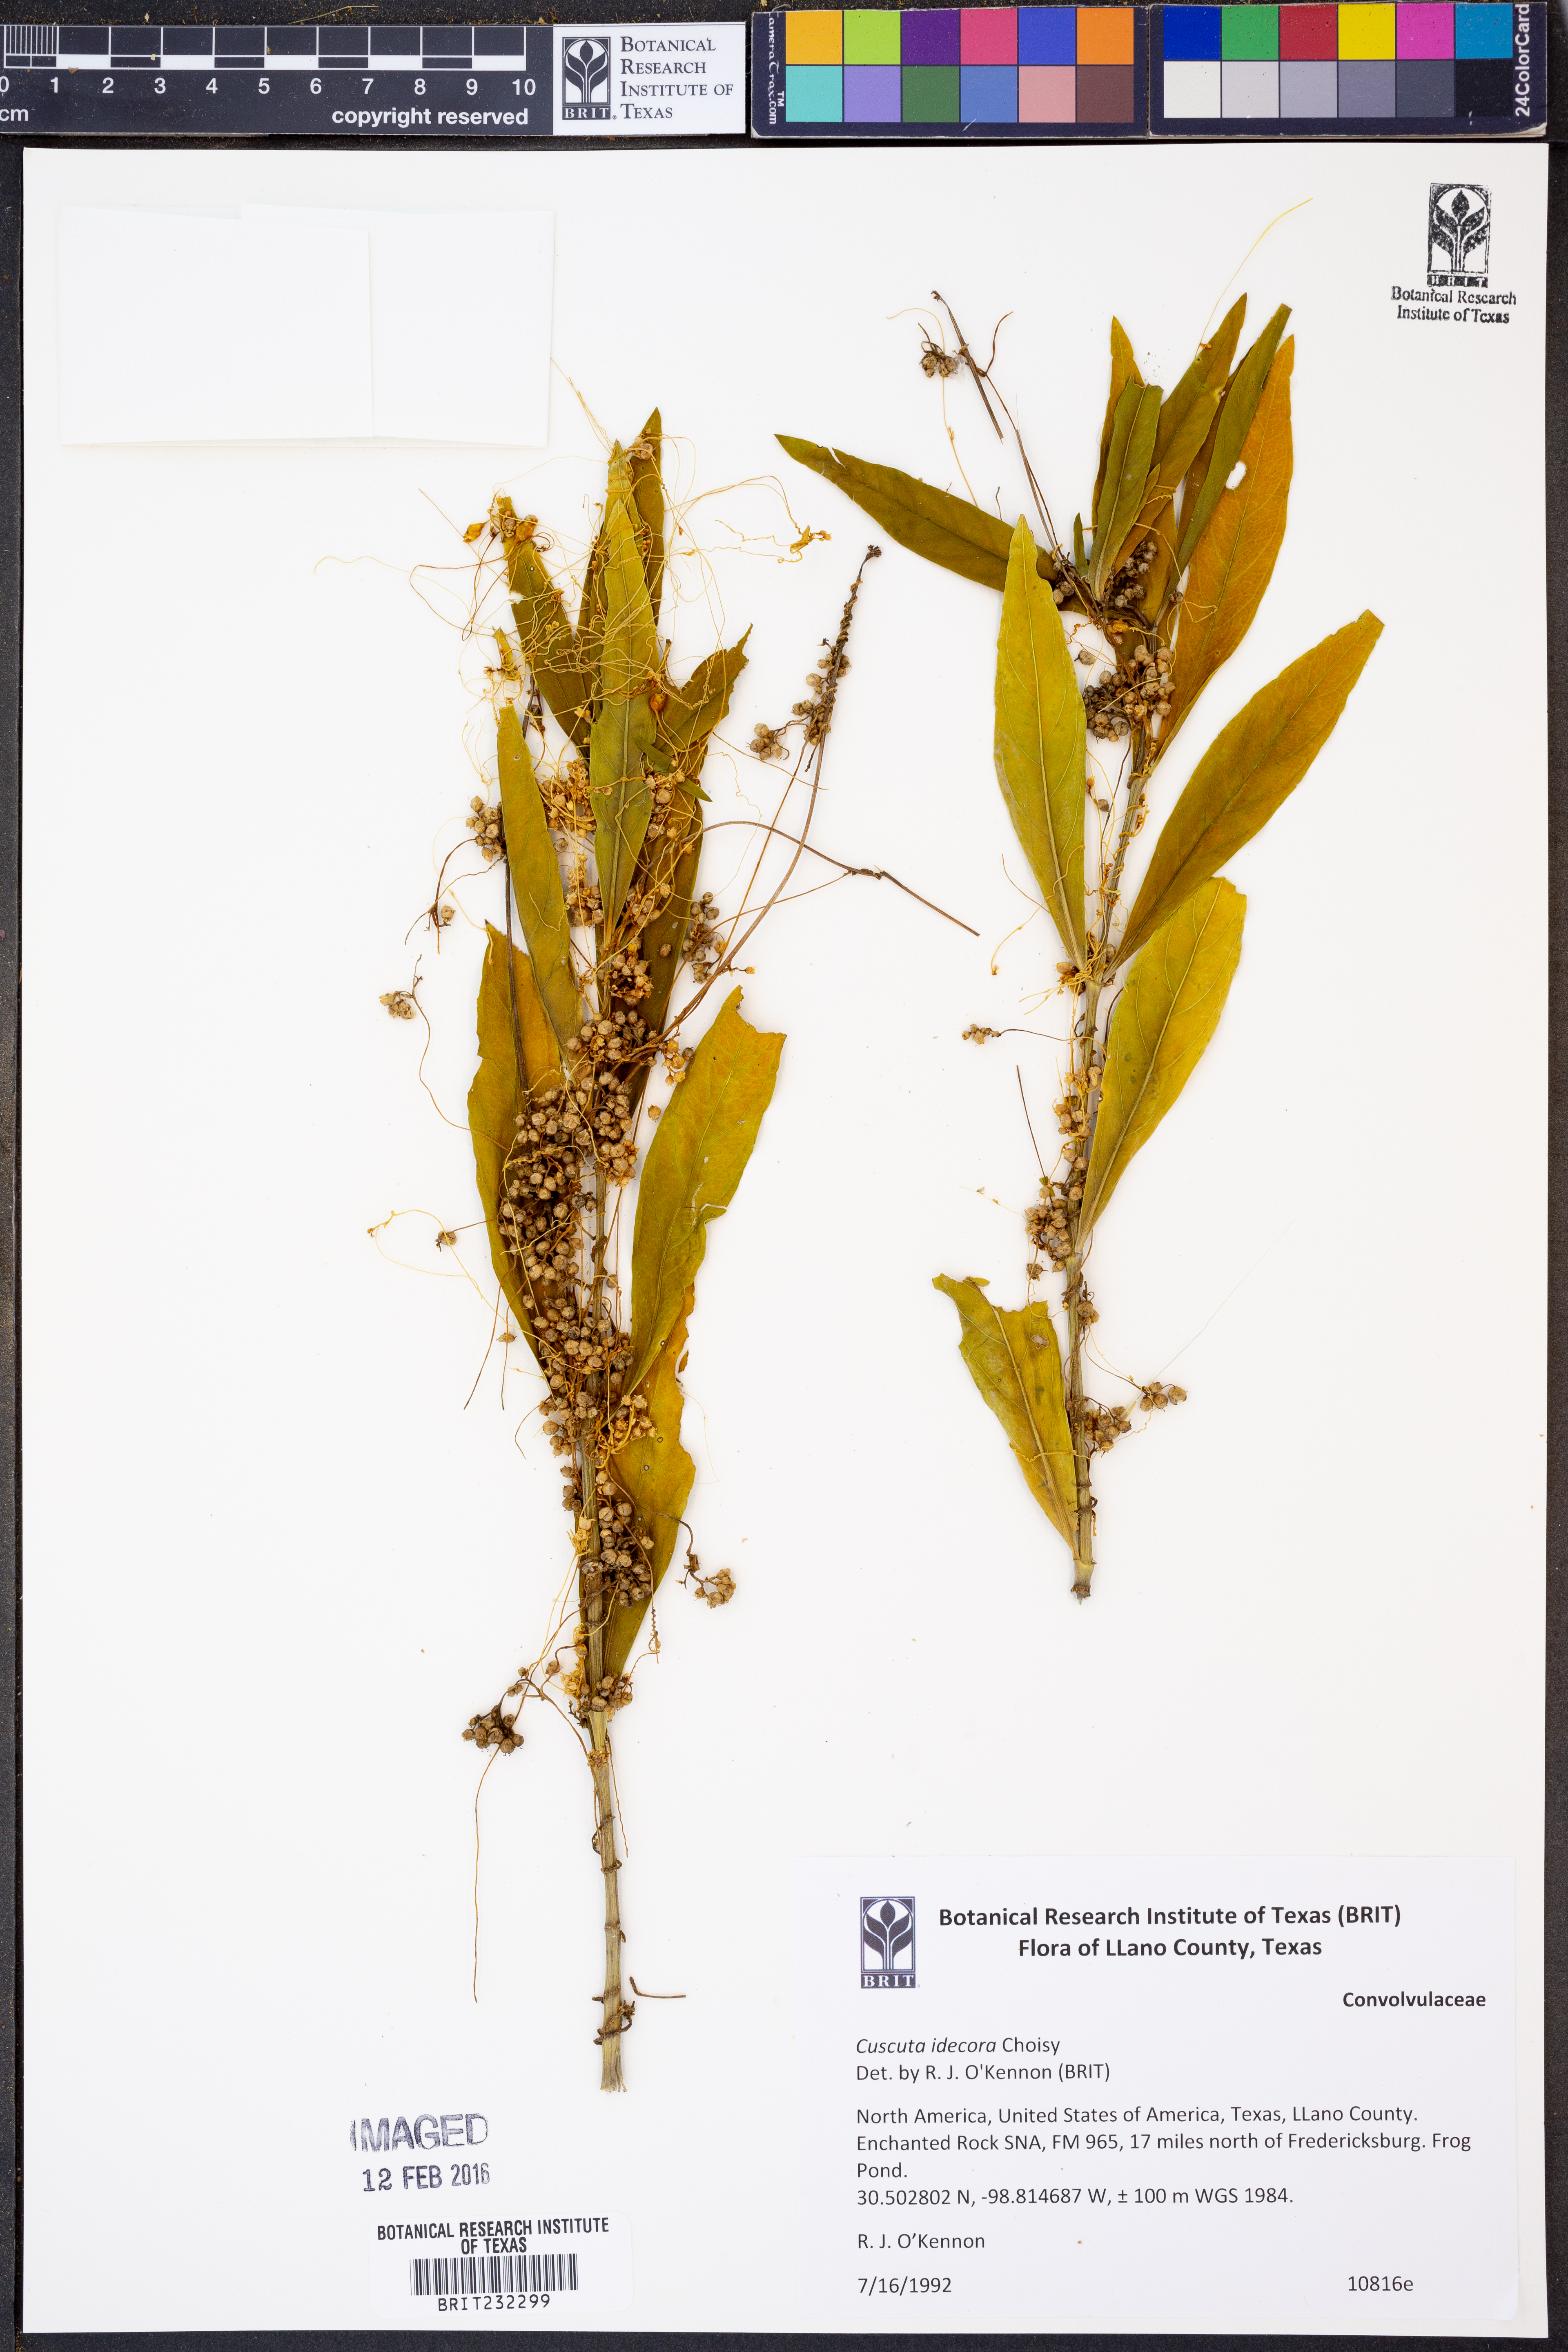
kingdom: Plantae
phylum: Tracheophyta
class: Magnoliopsida
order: Solanales
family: Convolvulaceae
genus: Cuscuta
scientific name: Cuscuta indecora
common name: Large-seed dodder
